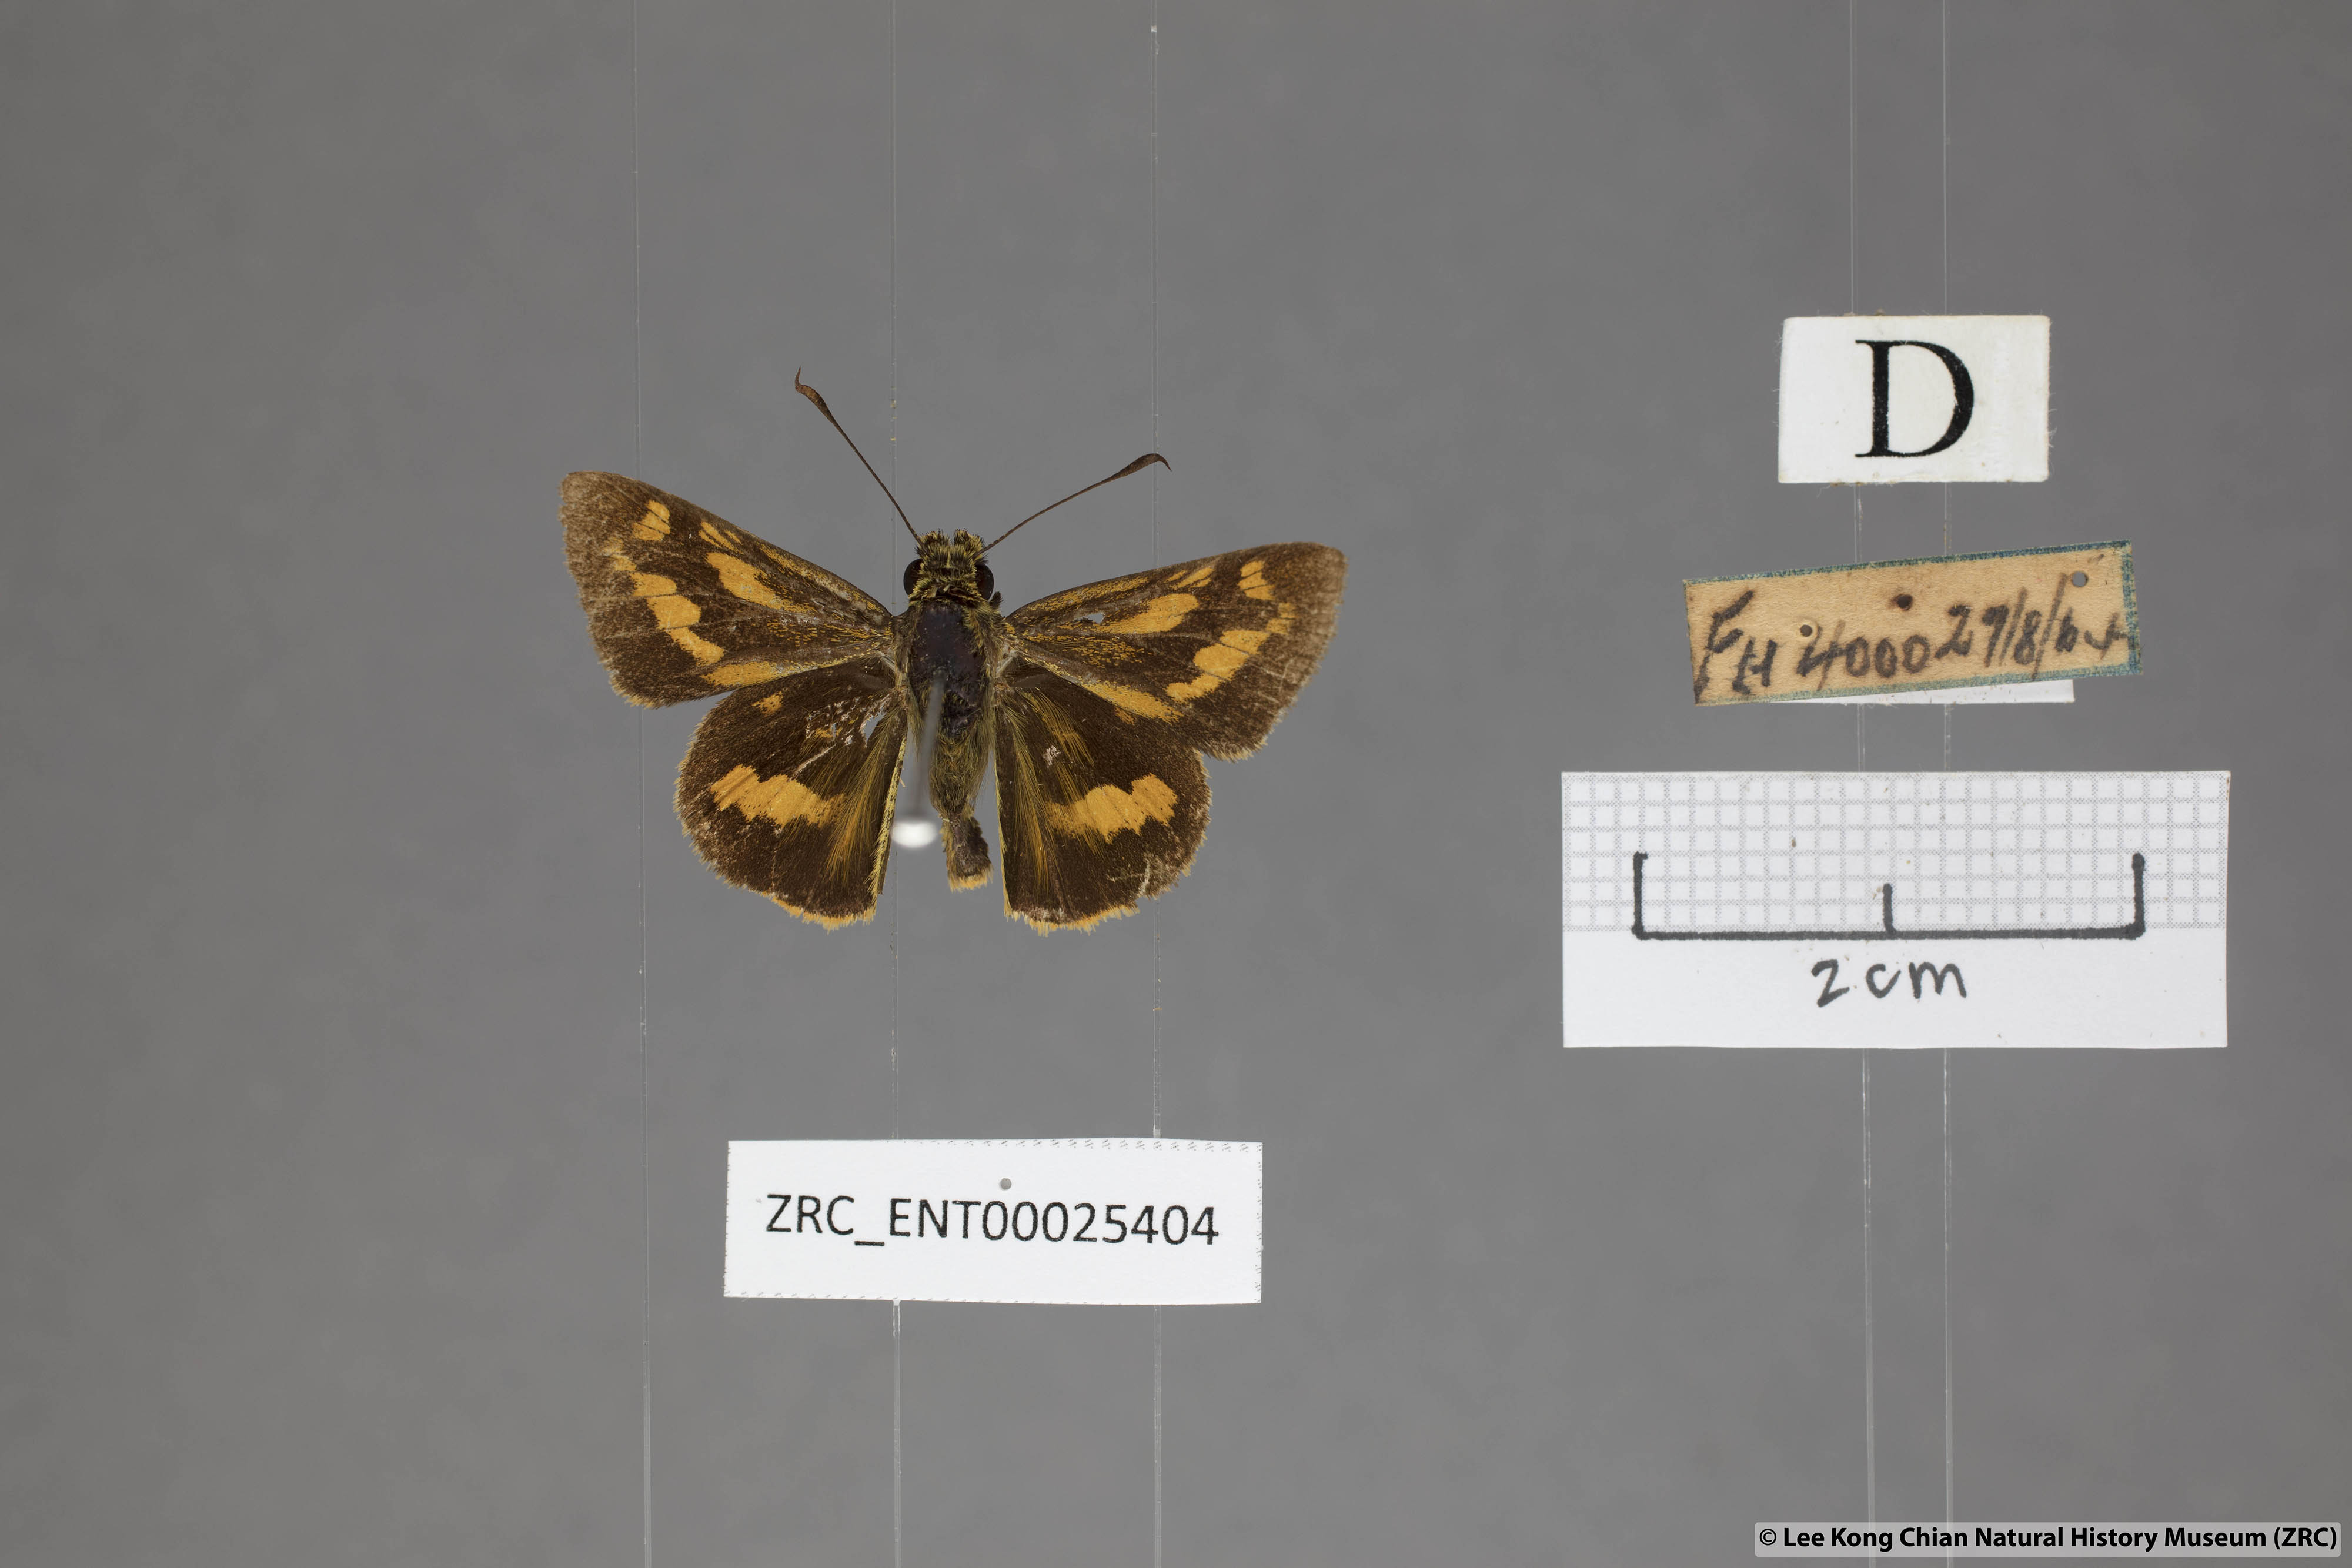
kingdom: Animalia
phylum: Arthropoda
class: Insecta
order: Lepidoptera
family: Hesperiidae
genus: Potanthus
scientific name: Potanthus lydia
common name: Lydia dart
